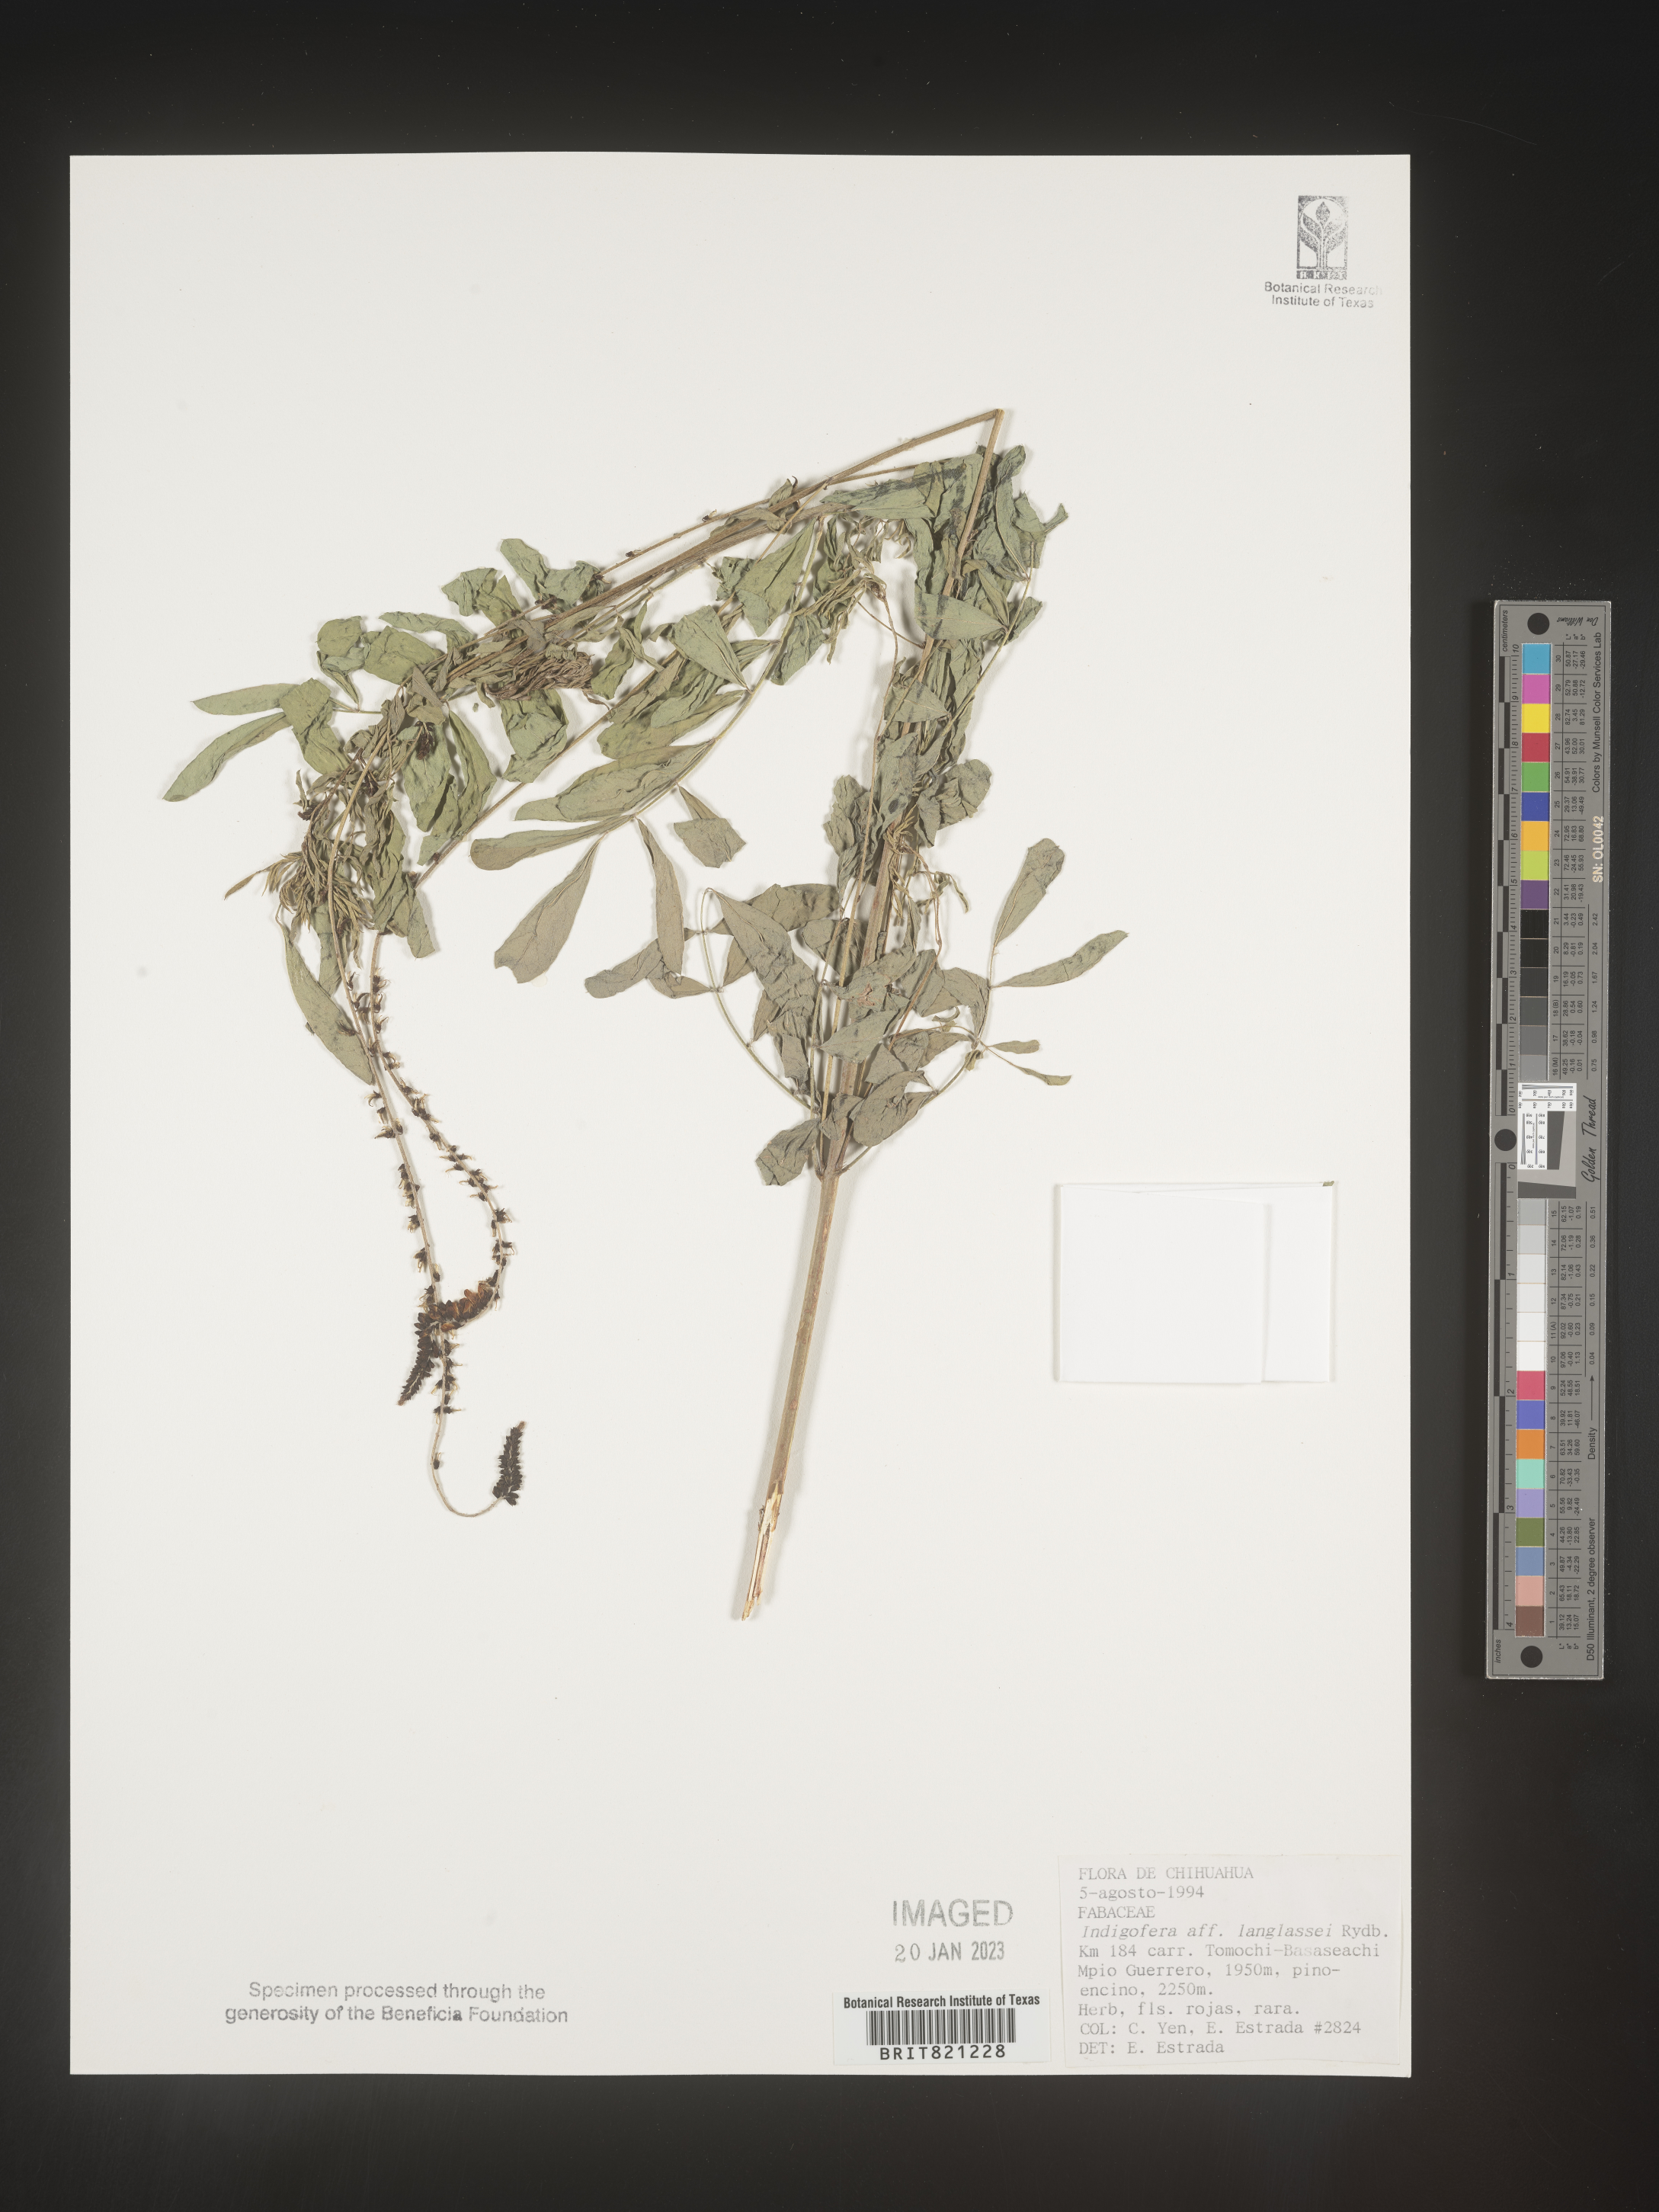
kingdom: Plantae
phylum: Tracheophyta
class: Magnoliopsida
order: Fabales
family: Fabaceae
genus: Indigofera
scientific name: Indigofera
